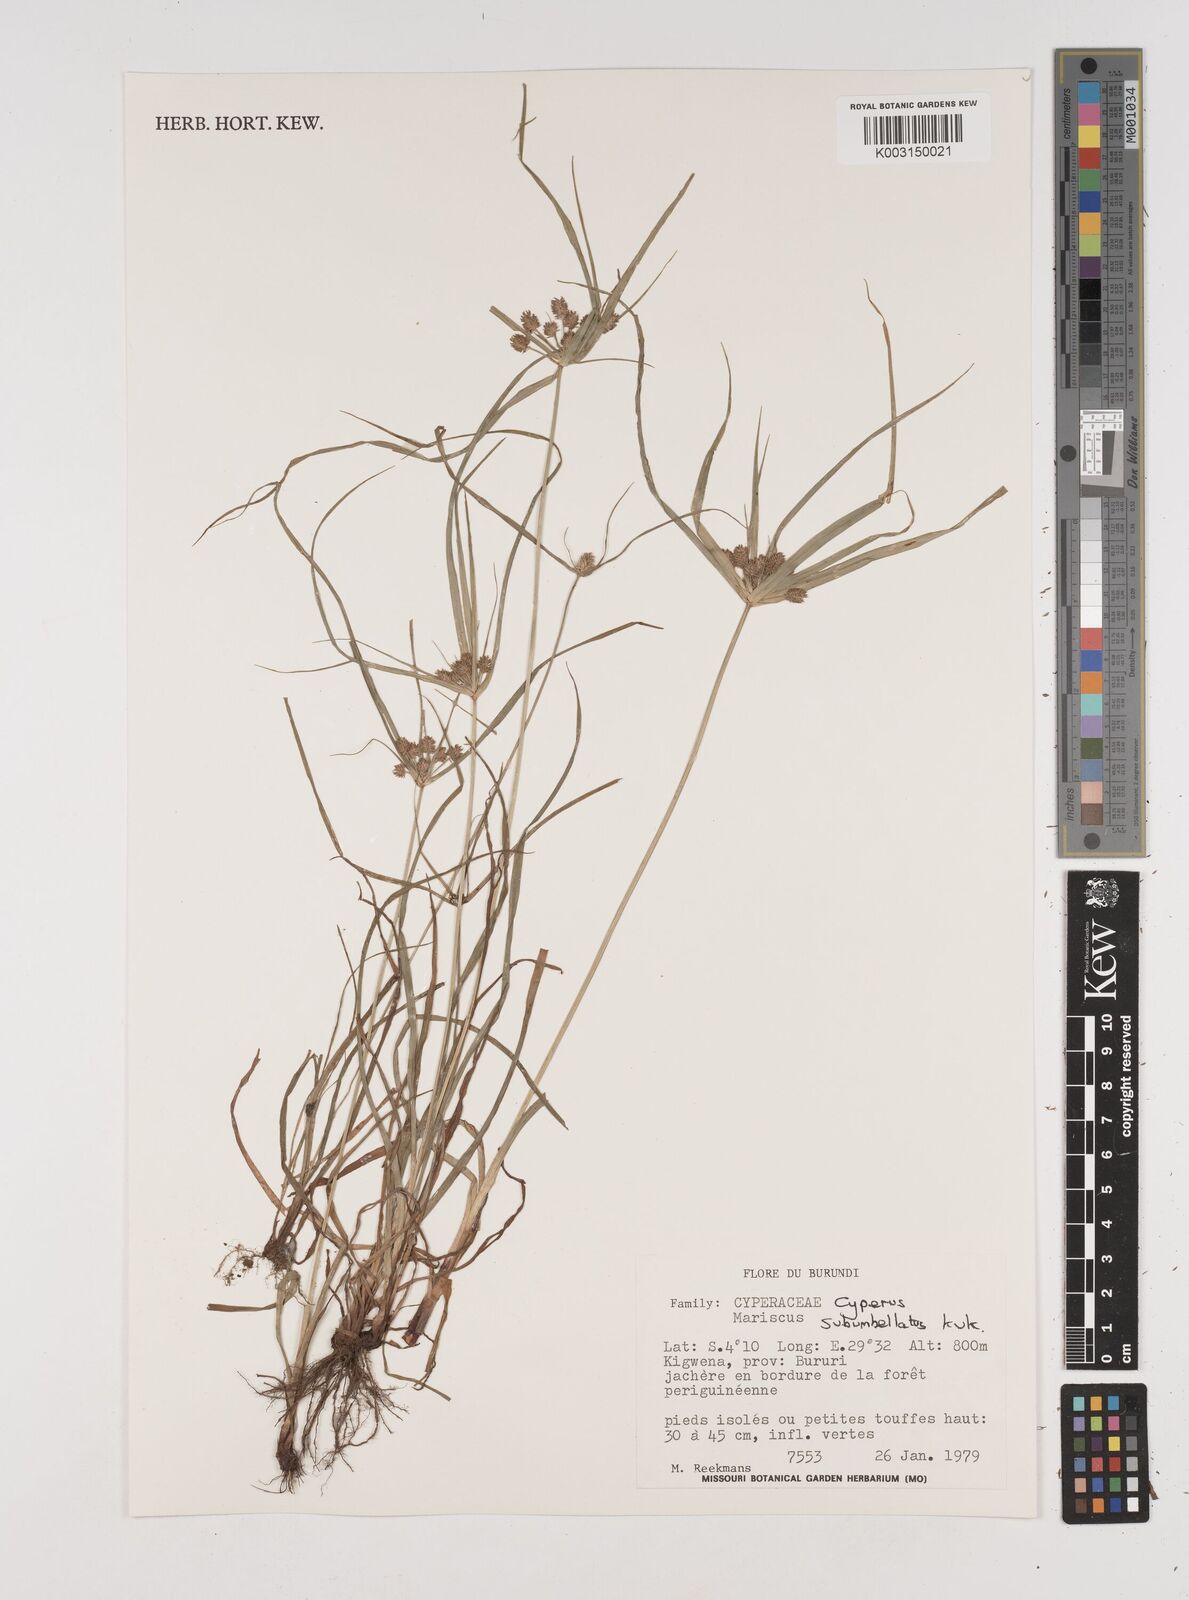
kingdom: Plantae
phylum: Tracheophyta
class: Liliopsida
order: Poales
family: Cyperaceae
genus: Cyperus
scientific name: Cyperus cyperoides
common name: Pacific island flat sedge
